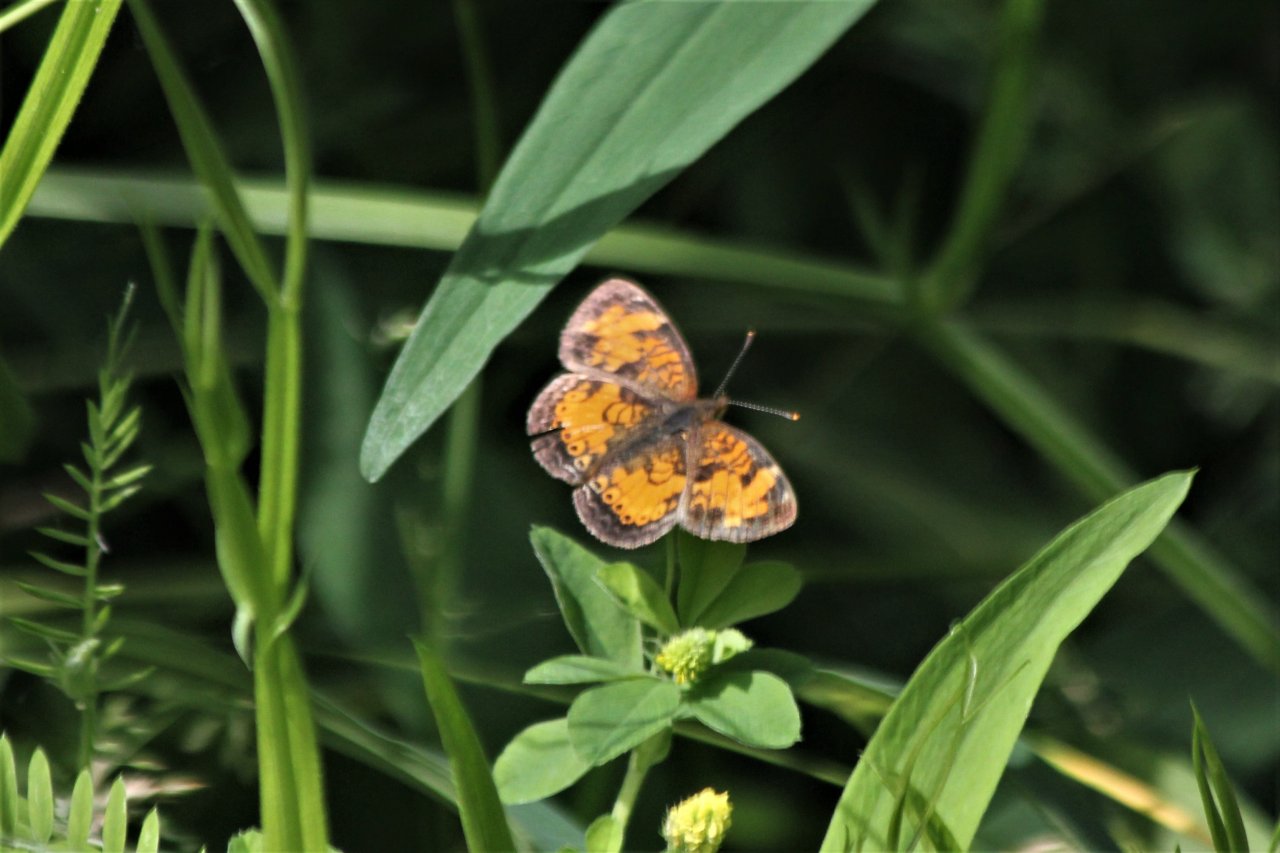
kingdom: Animalia
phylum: Arthropoda
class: Insecta
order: Lepidoptera
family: Nymphalidae
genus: Phyciodes
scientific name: Phyciodes tharos
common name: Northern Crescent
